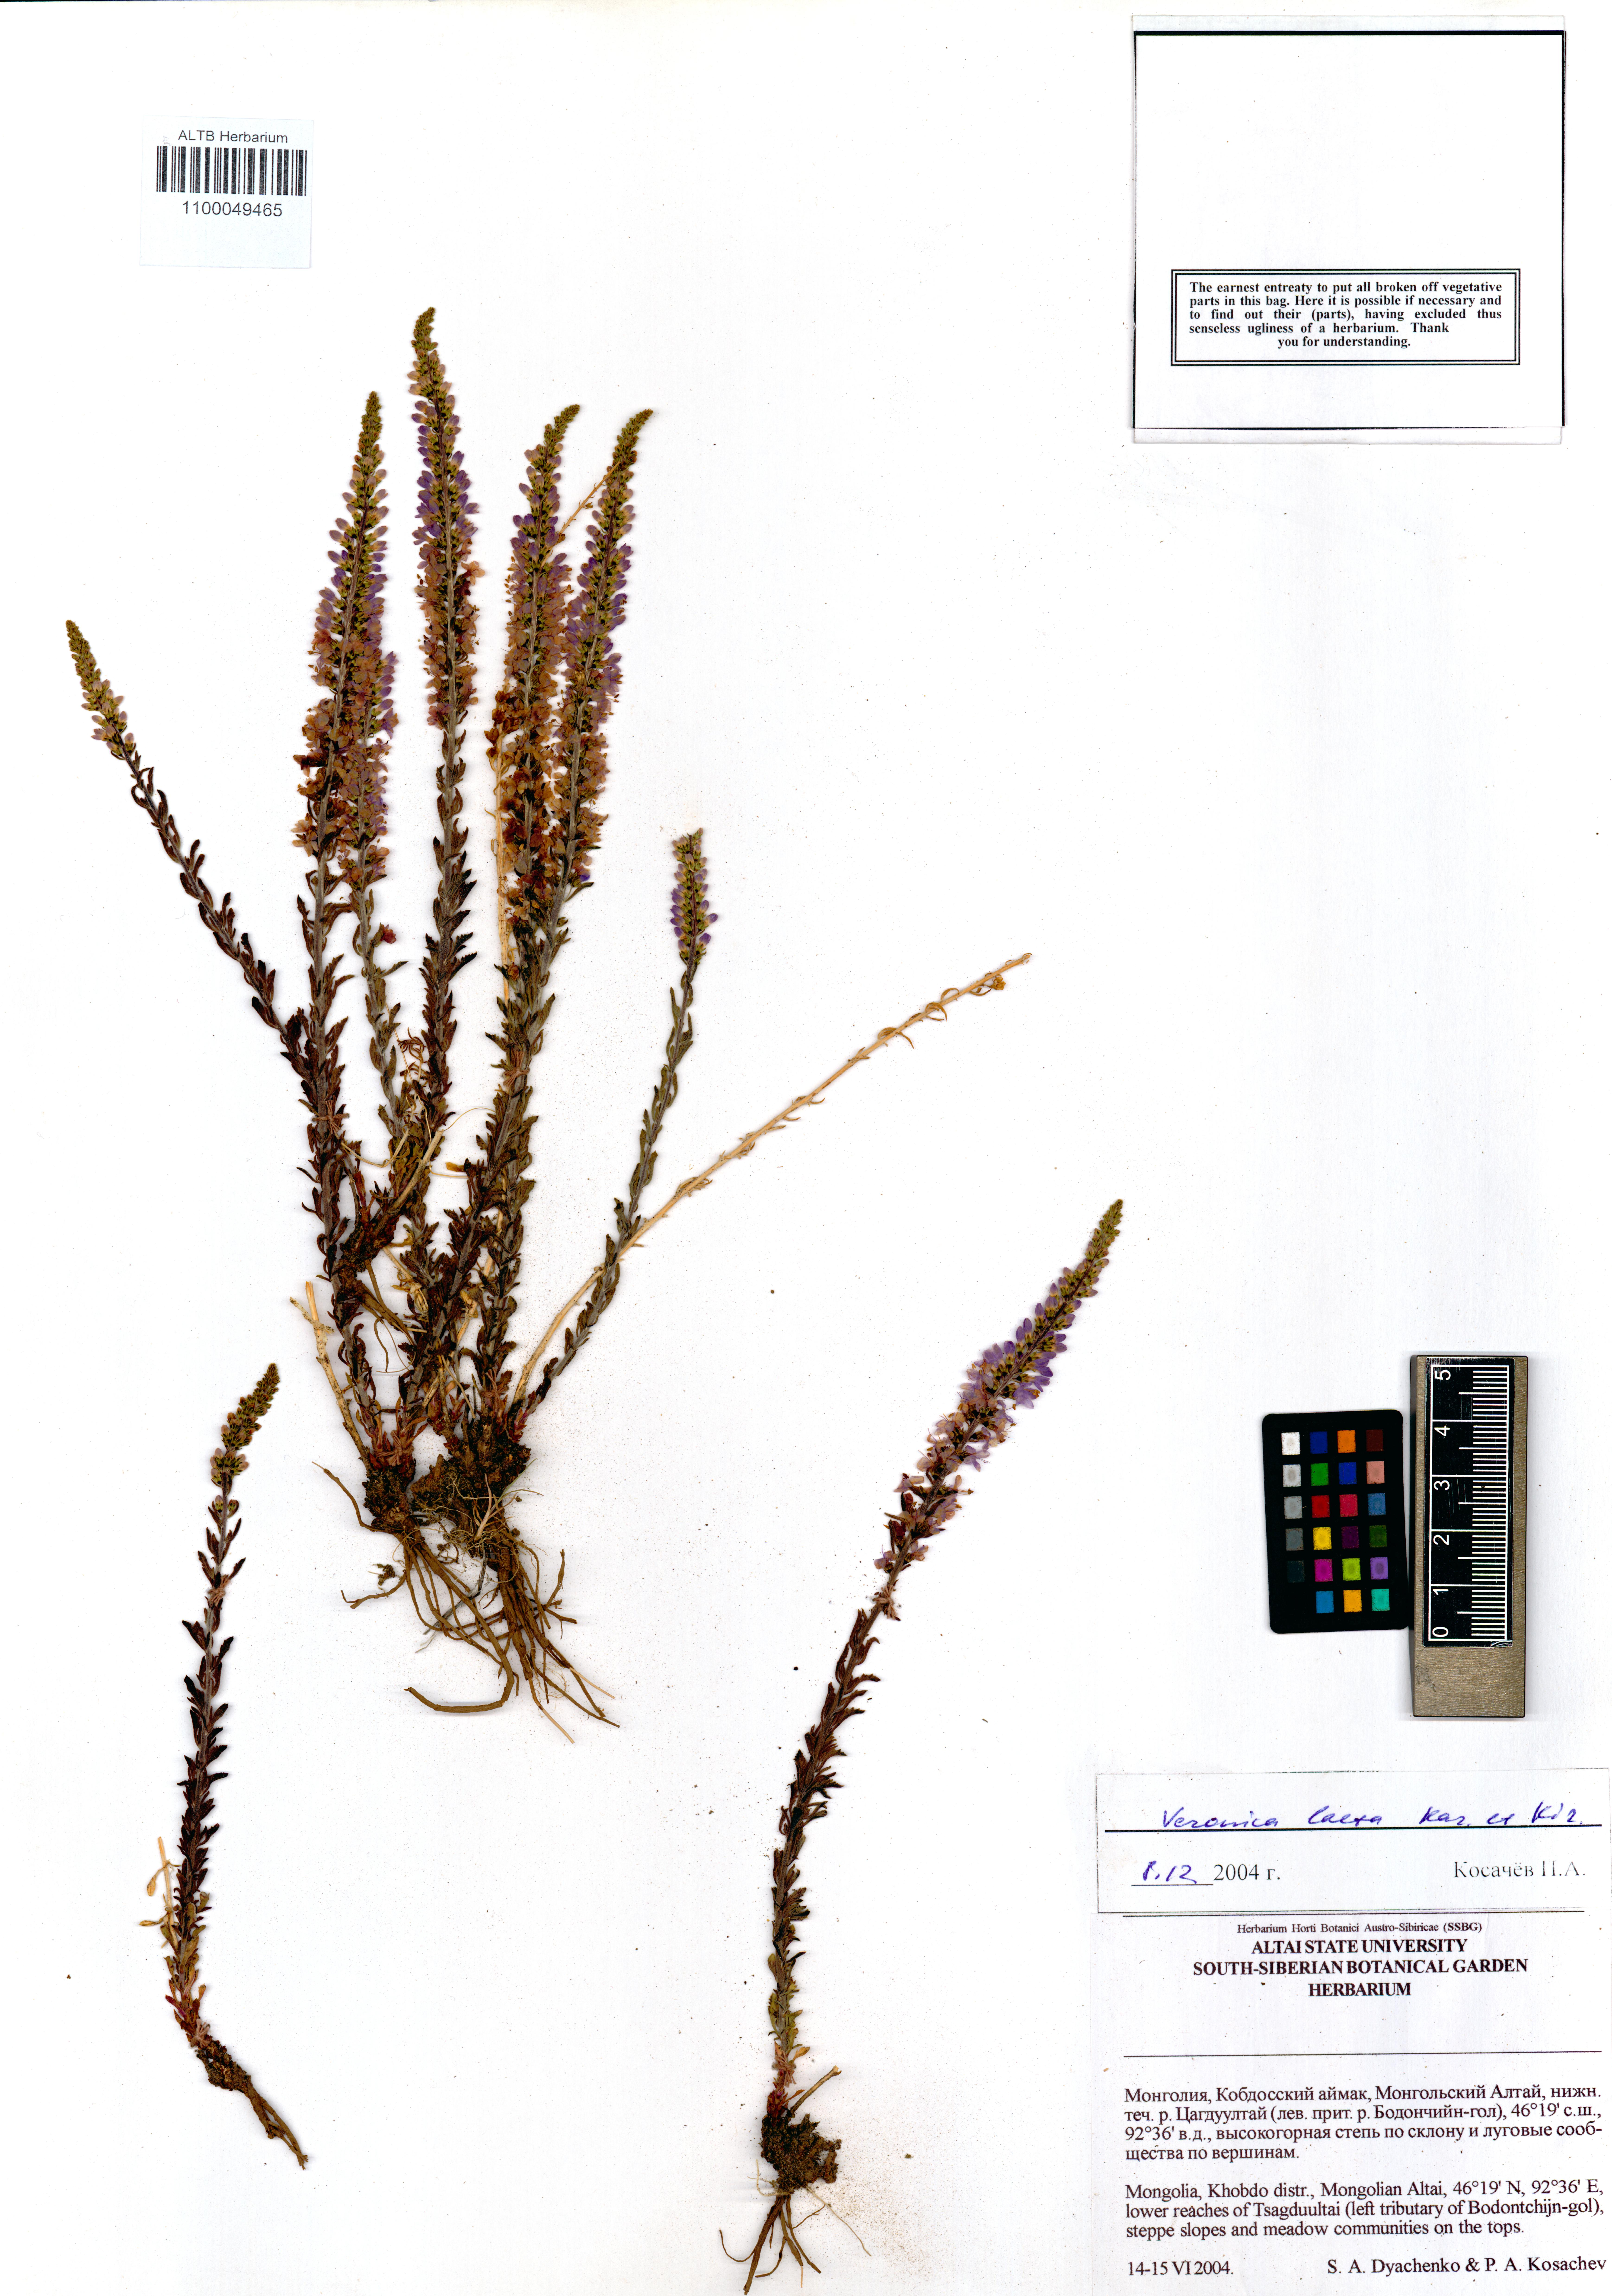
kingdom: Plantae
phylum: Tracheophyta
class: Magnoliopsida
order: Lamiales
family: Plantaginaceae
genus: Veronica
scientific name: Veronica laeta
